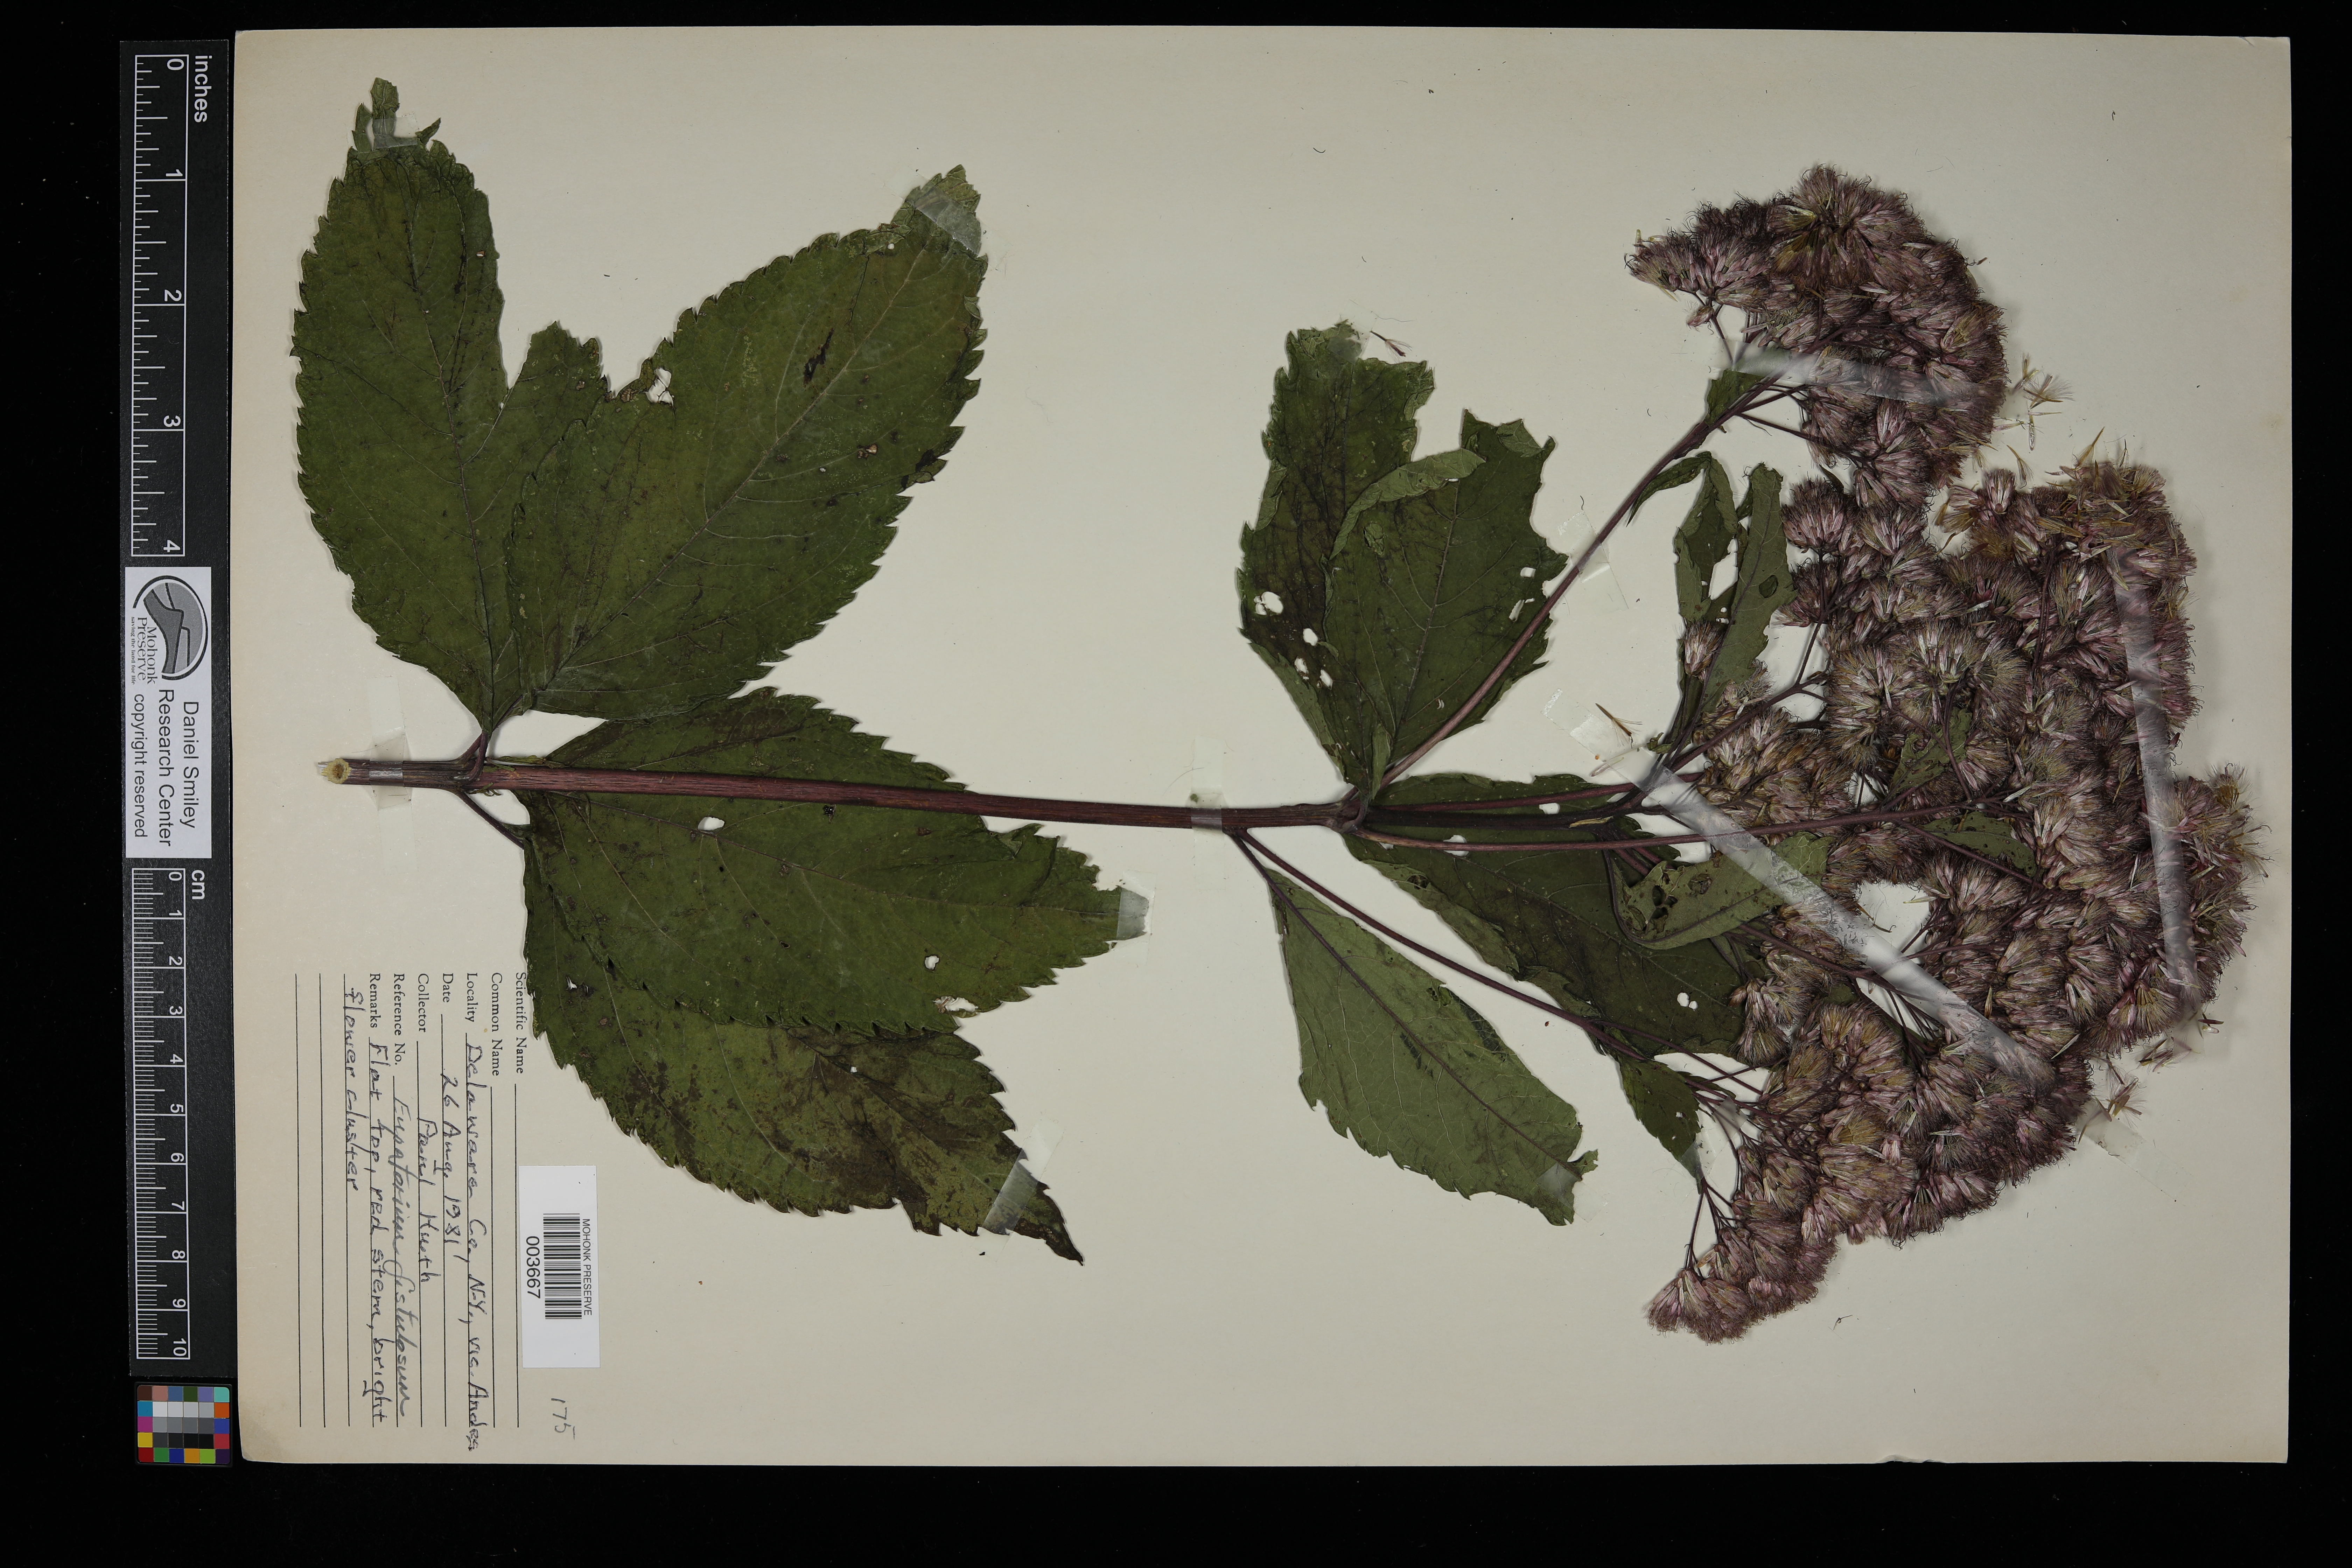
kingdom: Plantae
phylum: Tracheophyta
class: Magnoliopsida
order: Asterales
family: Asteraceae
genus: Eutrochium
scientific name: Eutrochium fistulosum
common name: Trumpetweed
